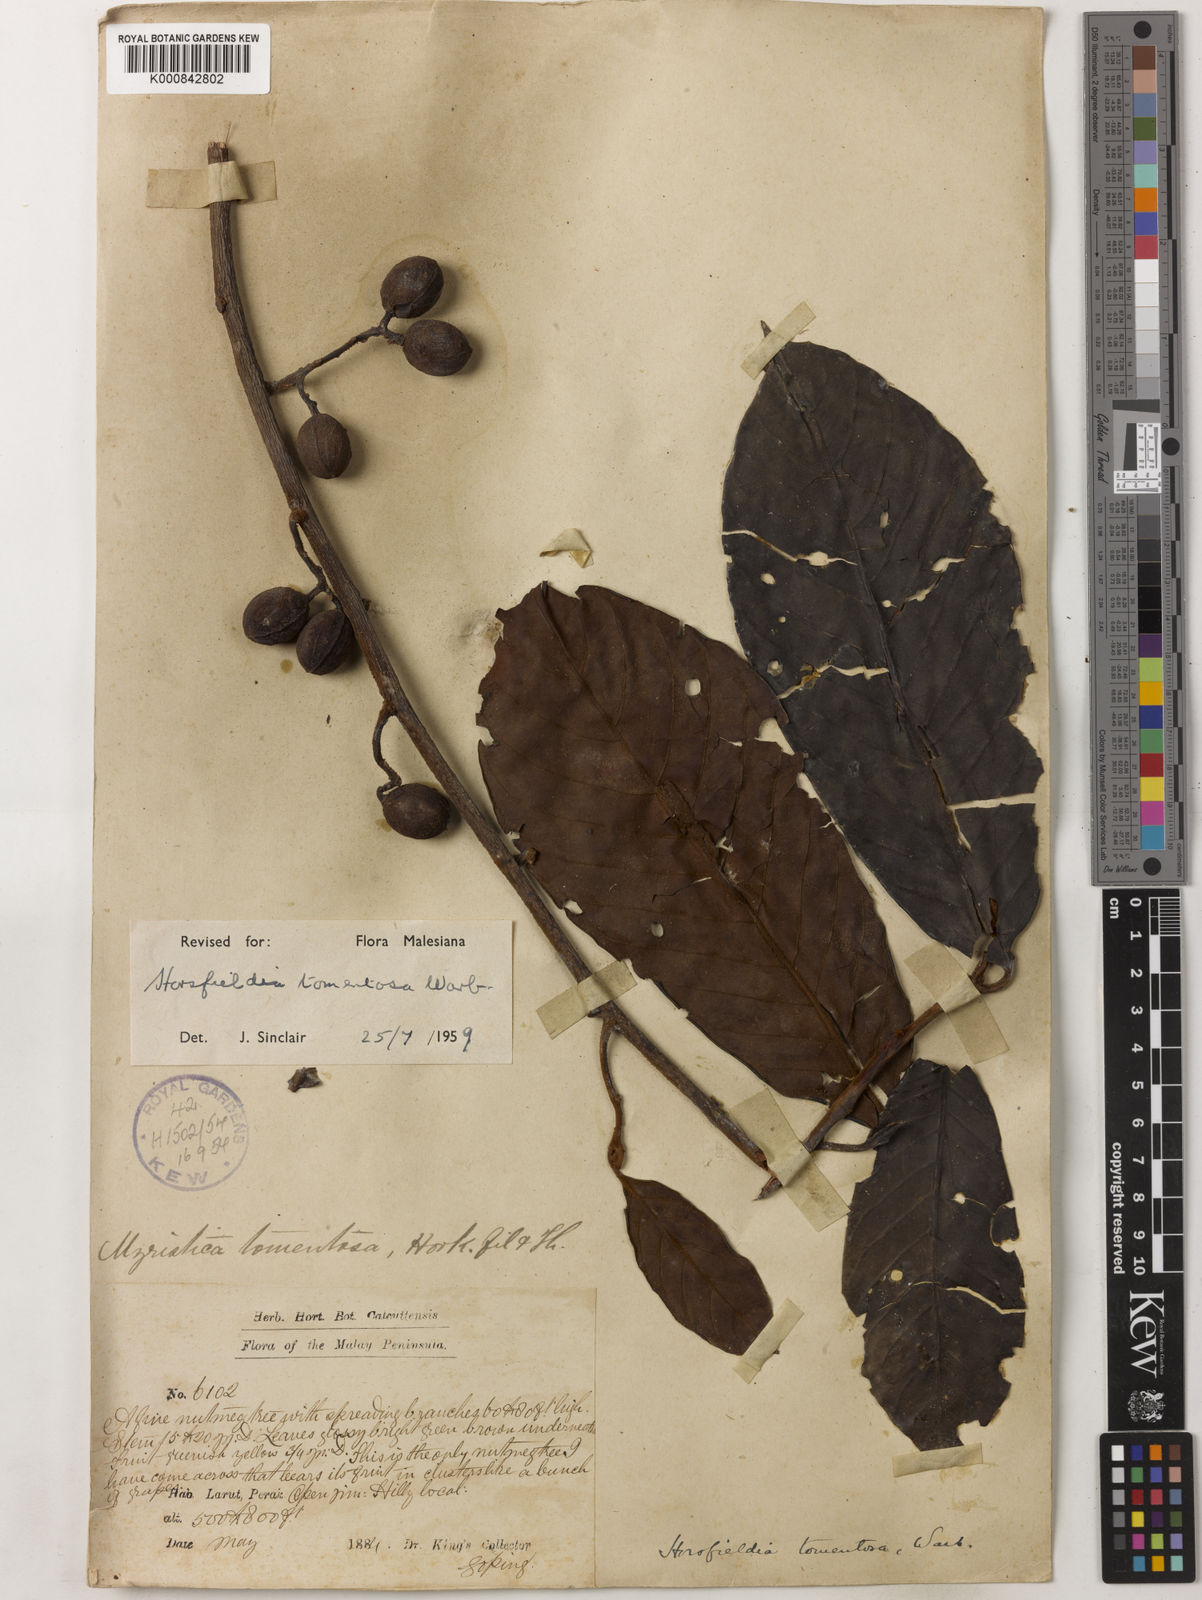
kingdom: Plantae
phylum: Tracheophyta
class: Magnoliopsida
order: Magnoliales
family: Myristicaceae
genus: Horsfieldia
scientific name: Horsfieldia tomentosa
